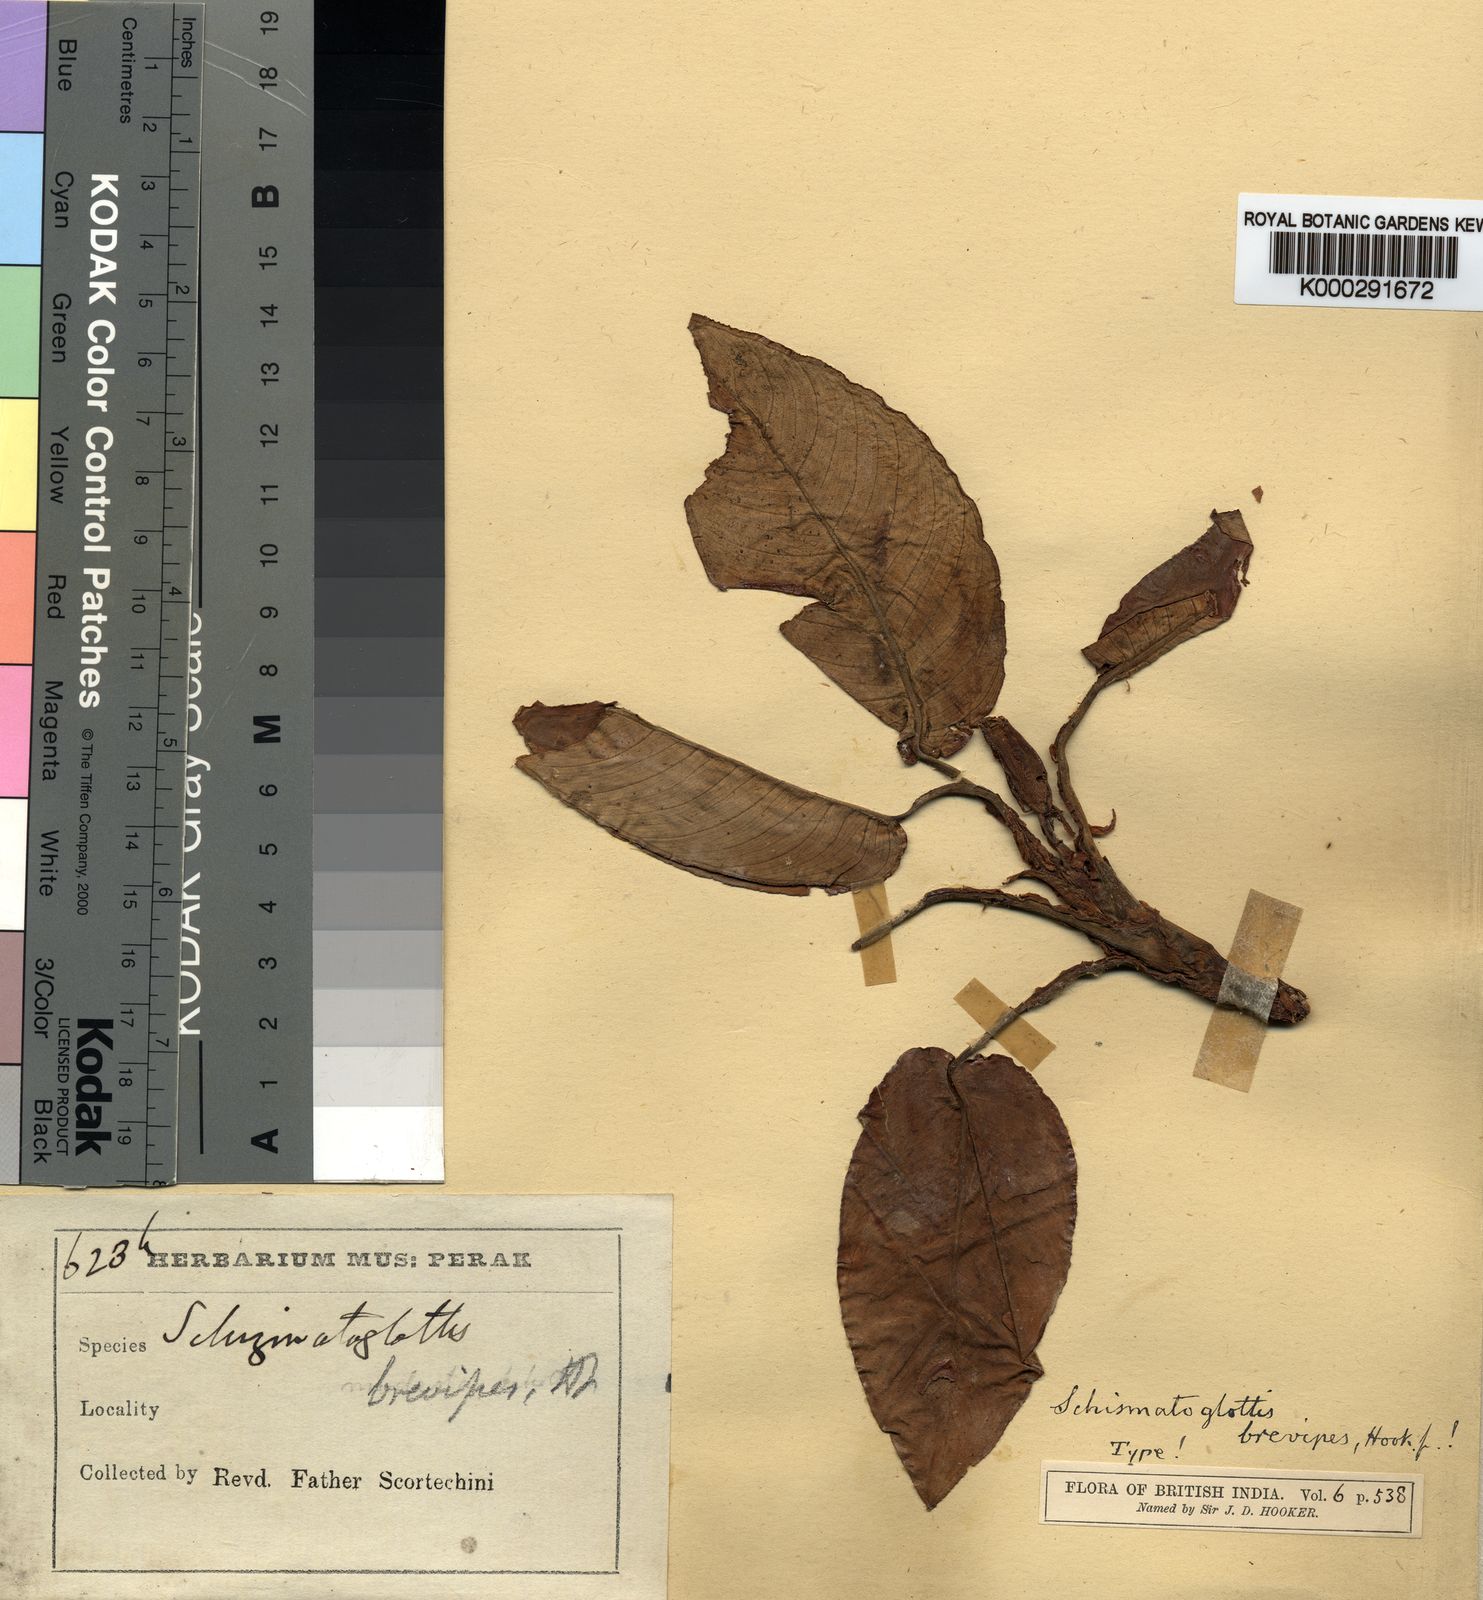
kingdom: Plantae
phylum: Tracheophyta
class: Liliopsida
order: Alismatales
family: Araceae
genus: Apoballis
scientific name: Apoballis brevipes
